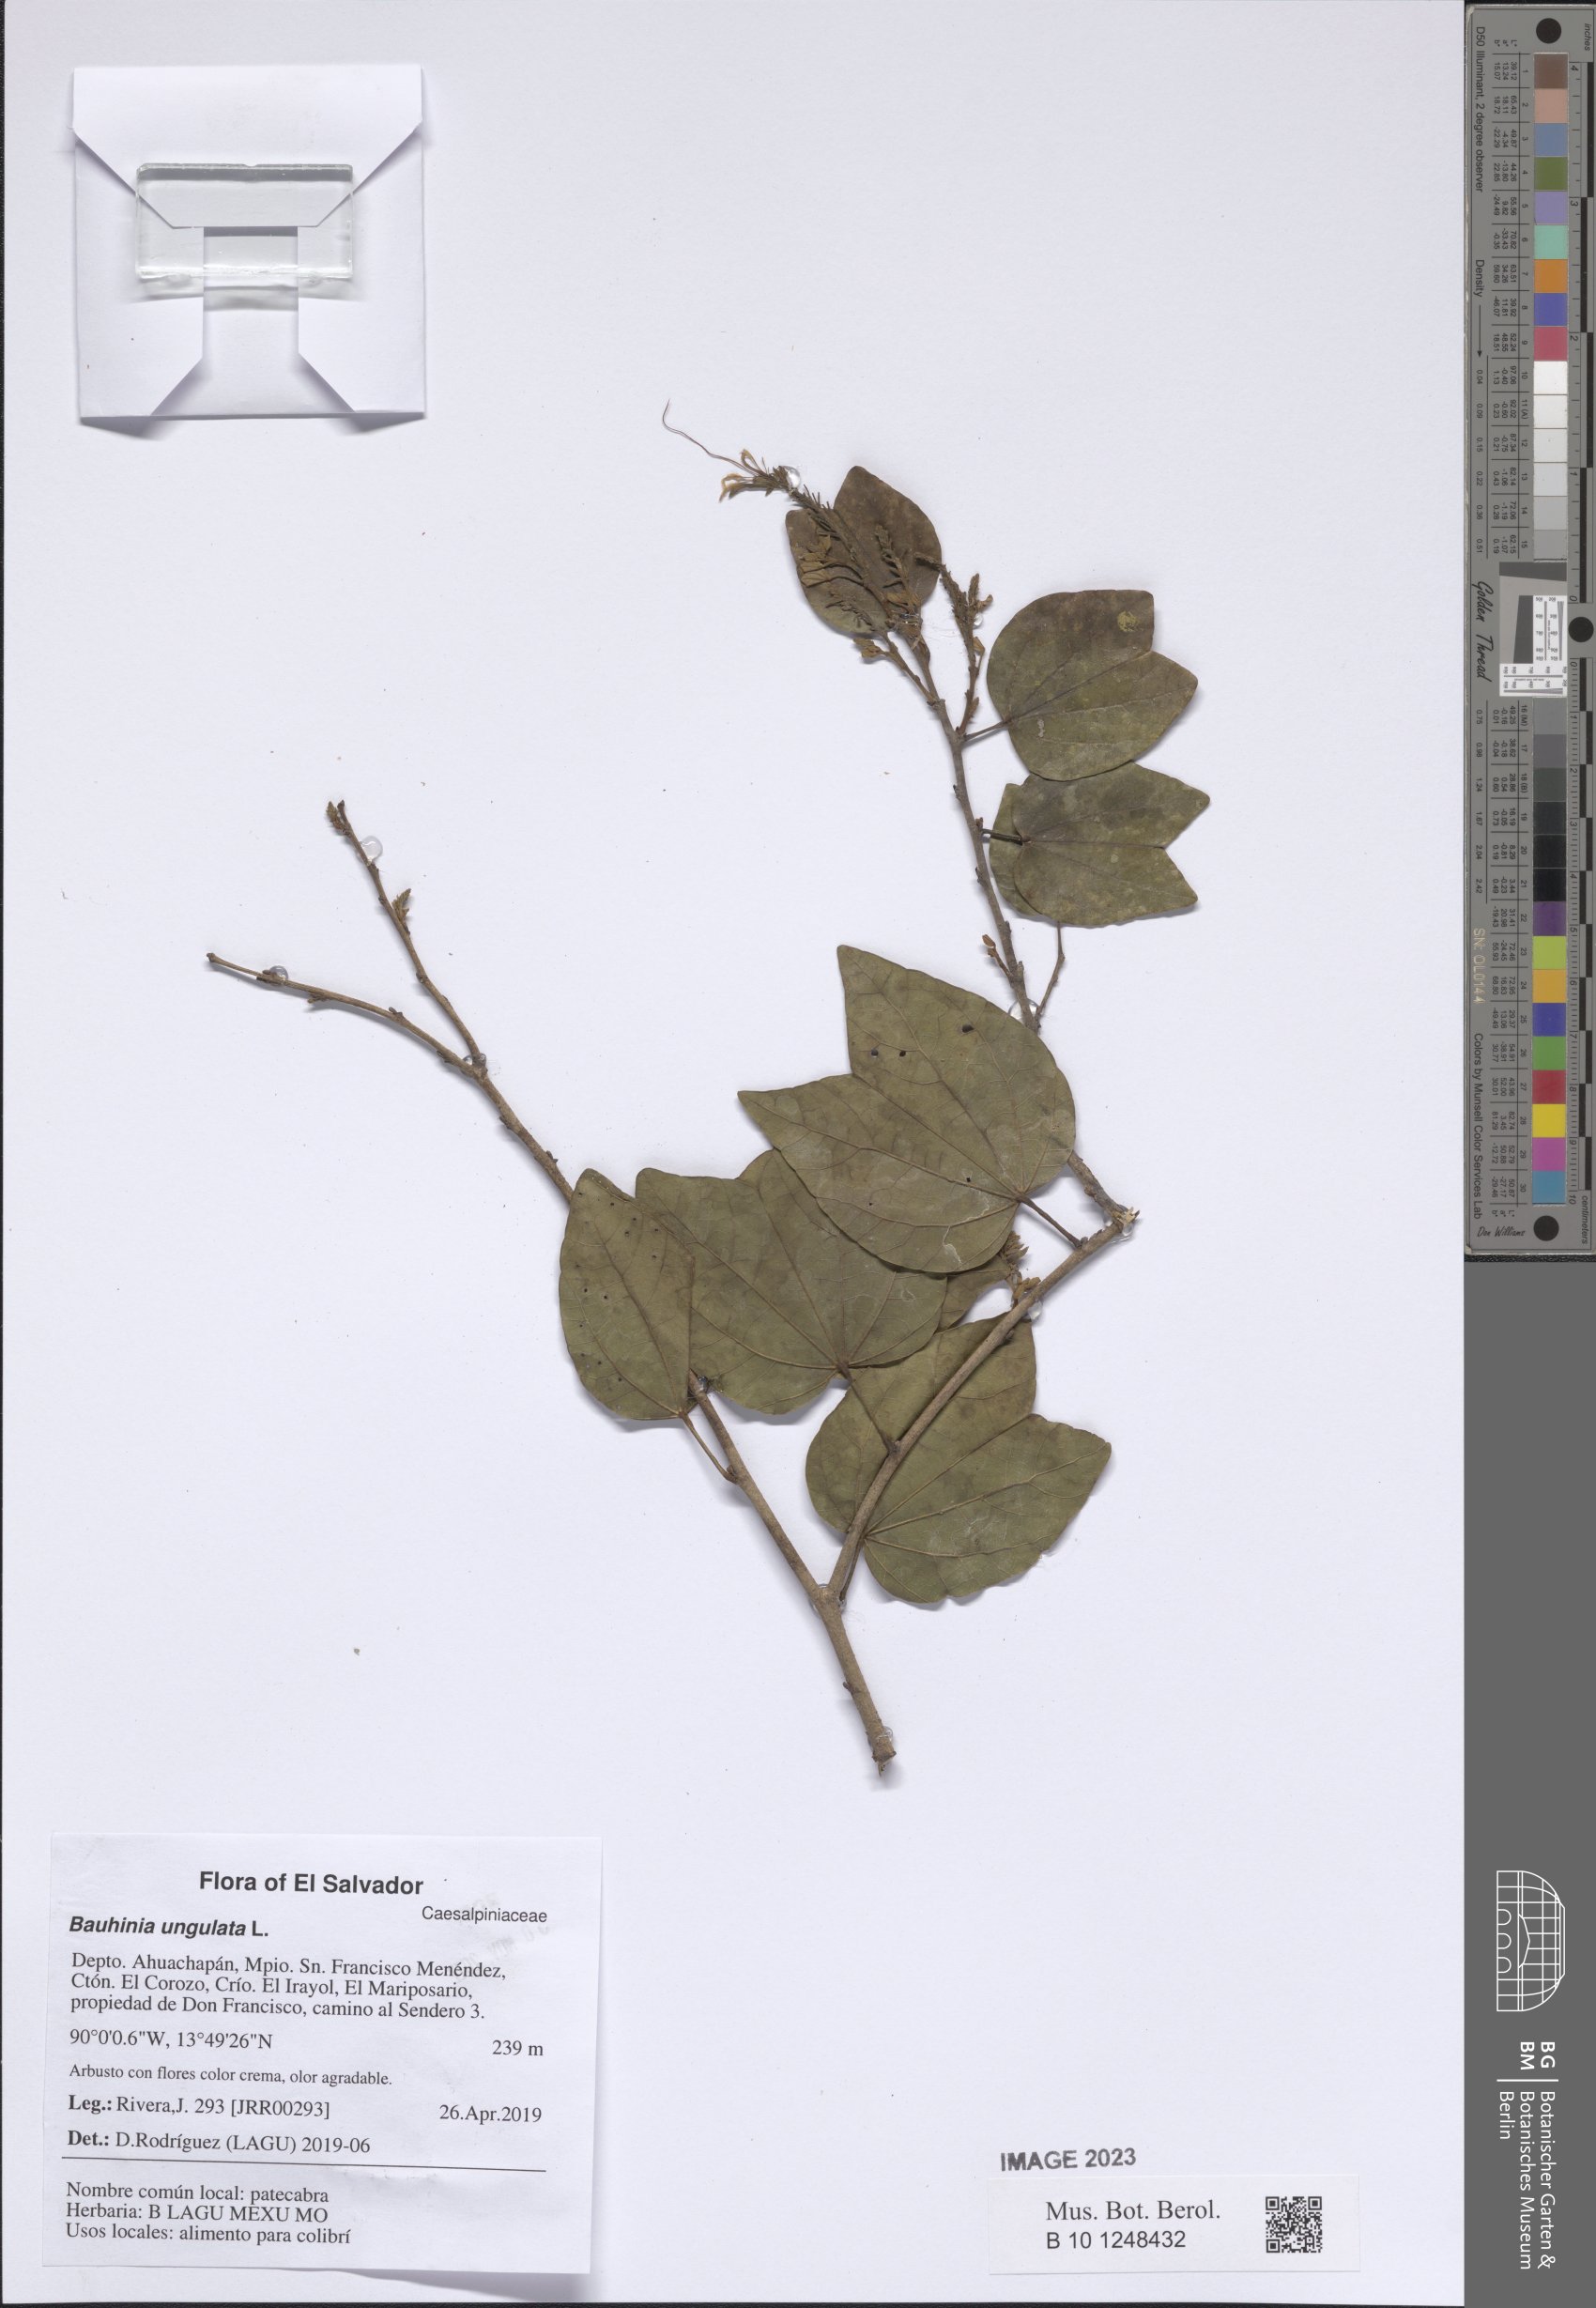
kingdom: Plantae
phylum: Tracheophyta
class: Magnoliopsida
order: Fabales
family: Fabaceae
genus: Bauhinia
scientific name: Bauhinia ungulata
